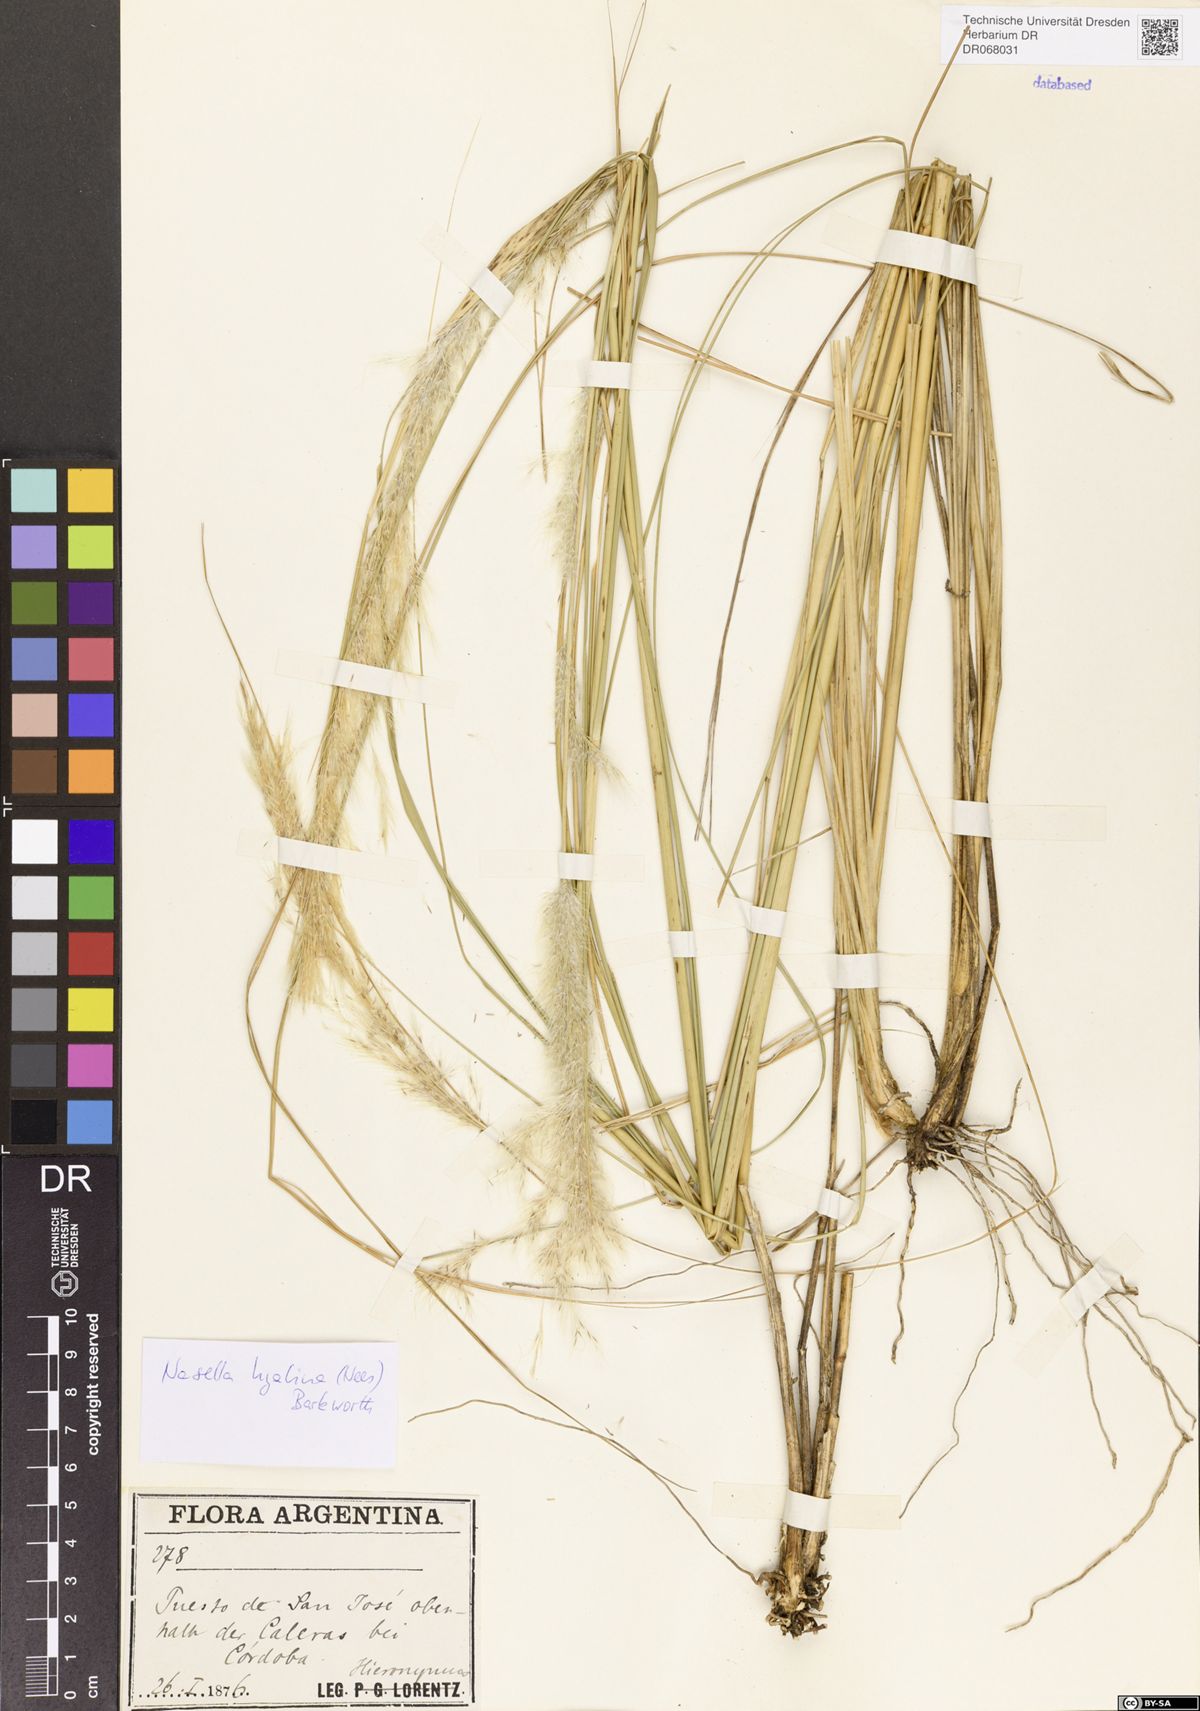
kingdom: Plantae
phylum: Tracheophyta
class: Liliopsida
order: Poales
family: Poaceae
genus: Nassella
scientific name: Nassella hyalina
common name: Spear grass
